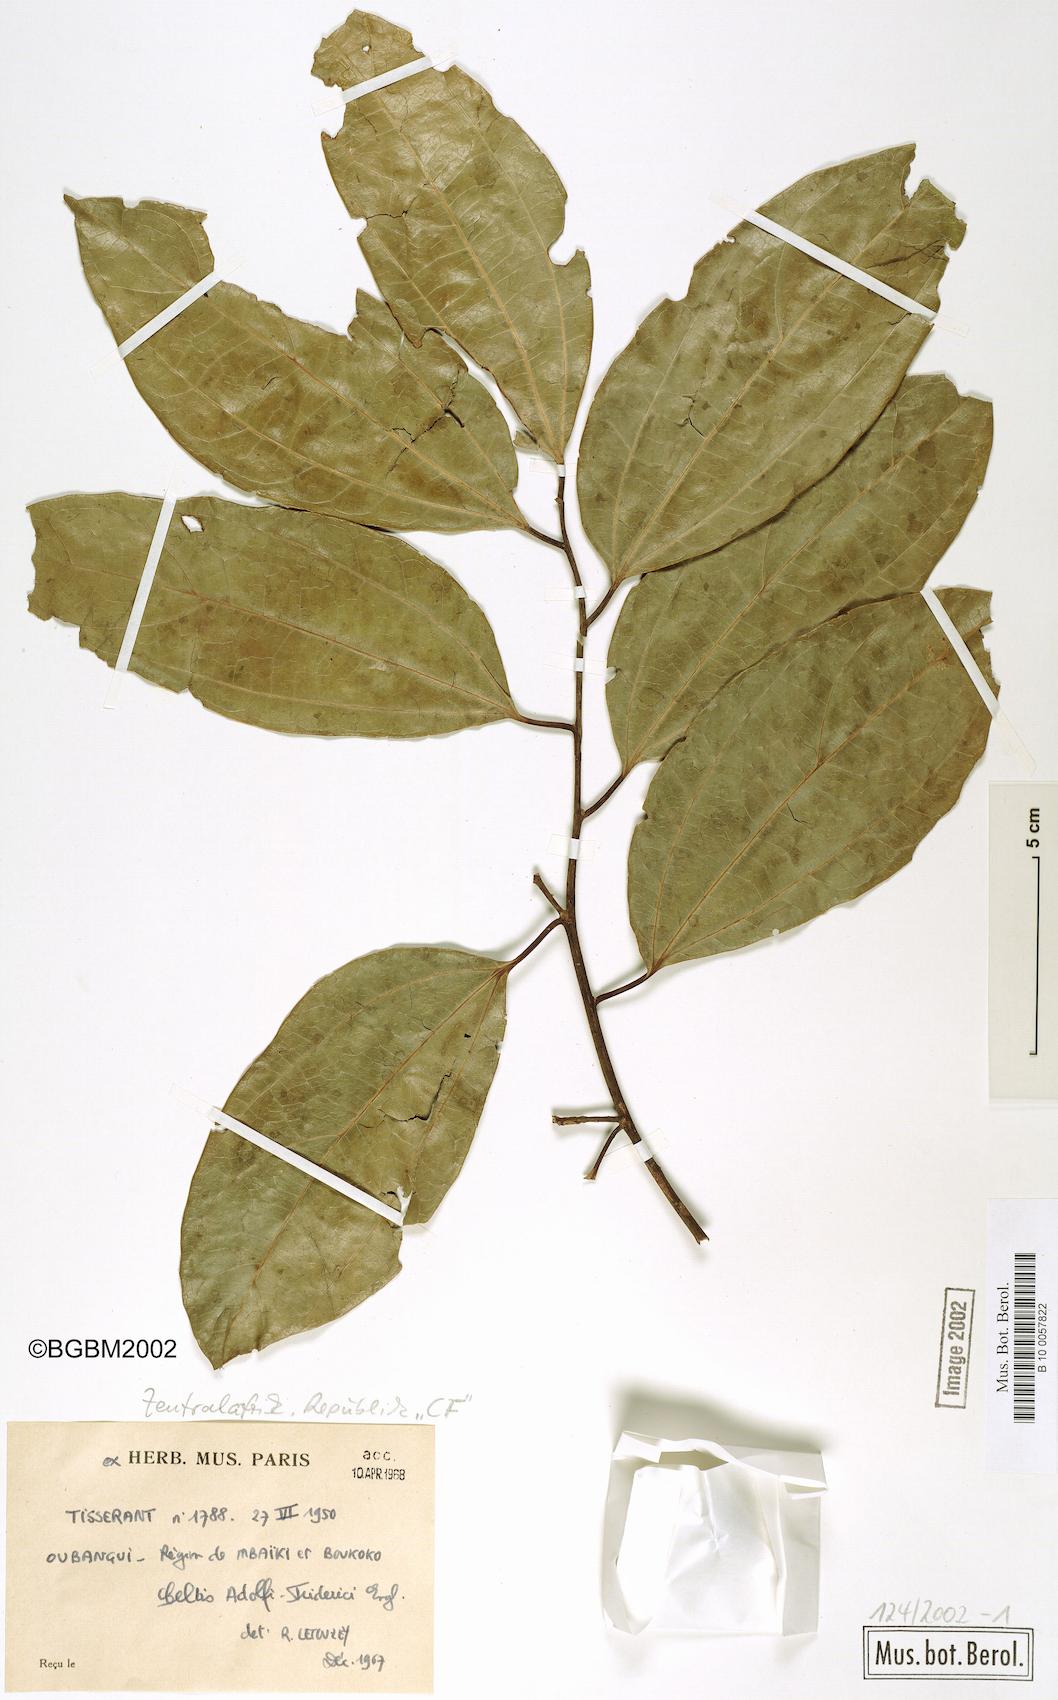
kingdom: Plantae
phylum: Tracheophyta
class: Magnoliopsida
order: Rosales
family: Cannabaceae
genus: Celtis
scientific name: Celtis adolfi-friderici
